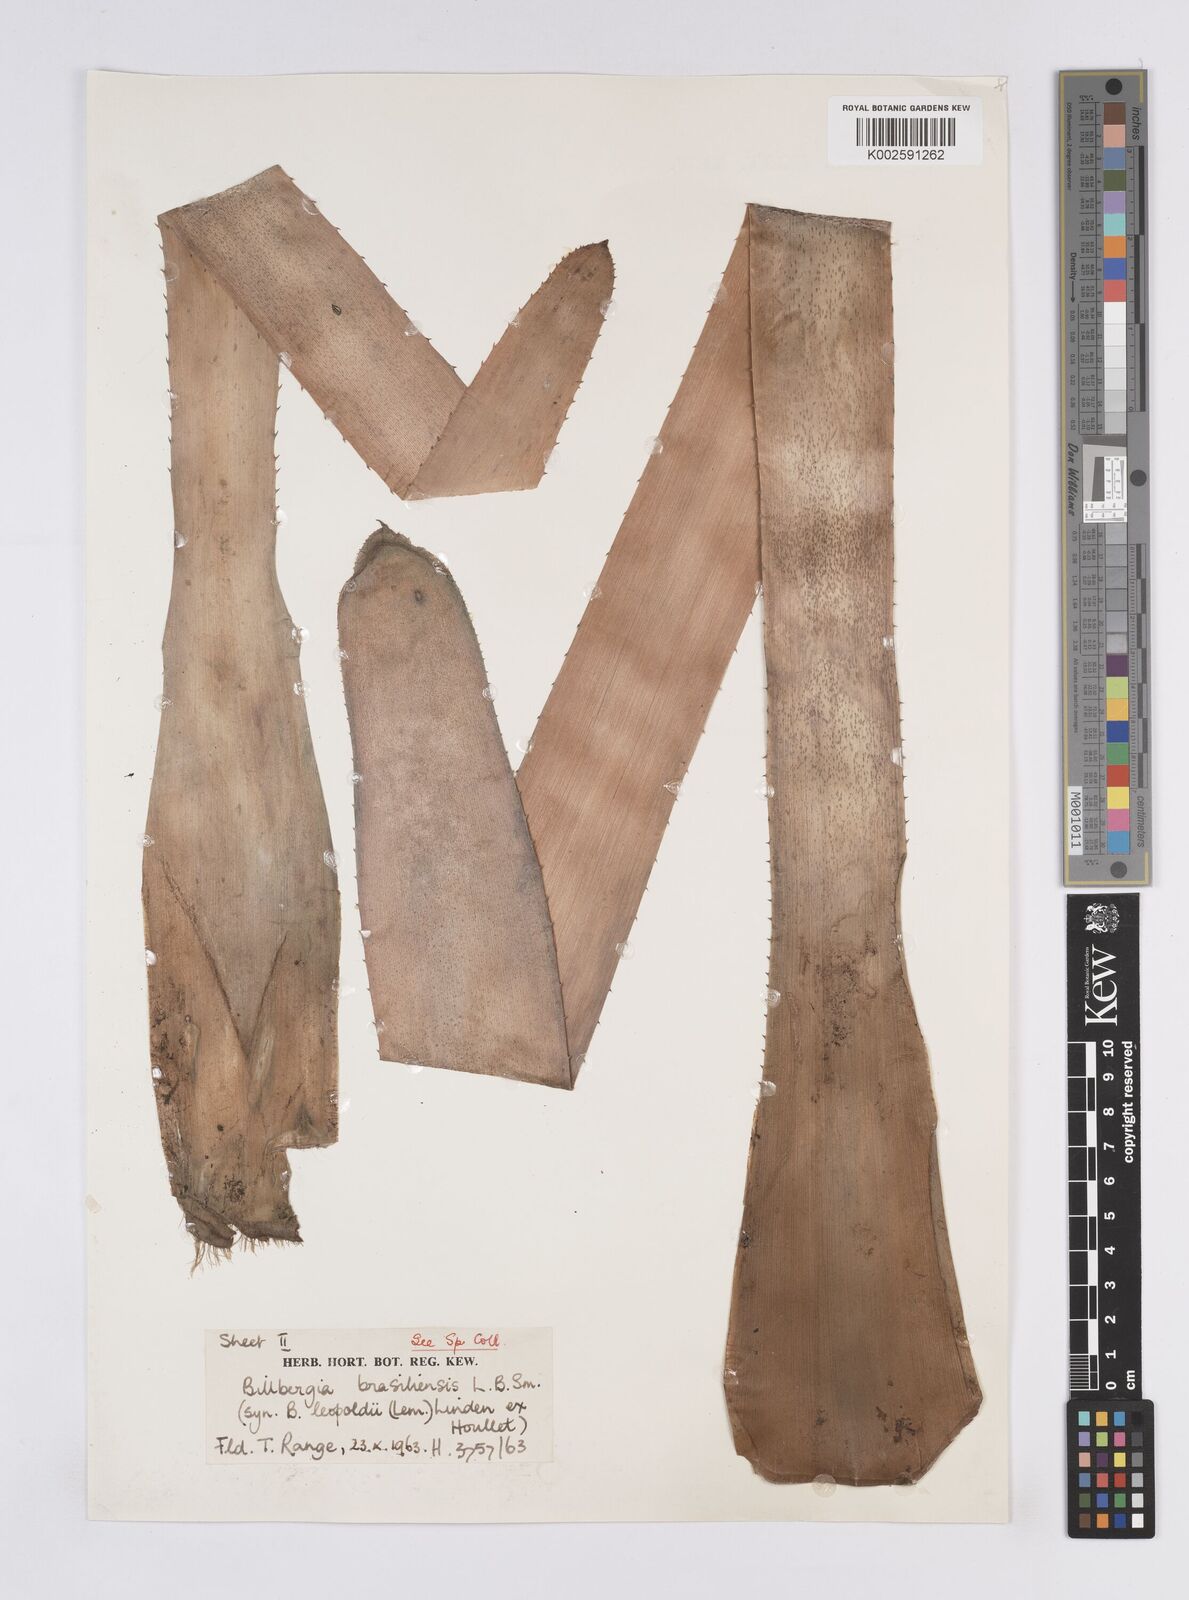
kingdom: Plantae
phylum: Tracheophyta
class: Liliopsida
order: Poales
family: Bromeliaceae
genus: Billbergia
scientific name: Billbergia brasiliensis
